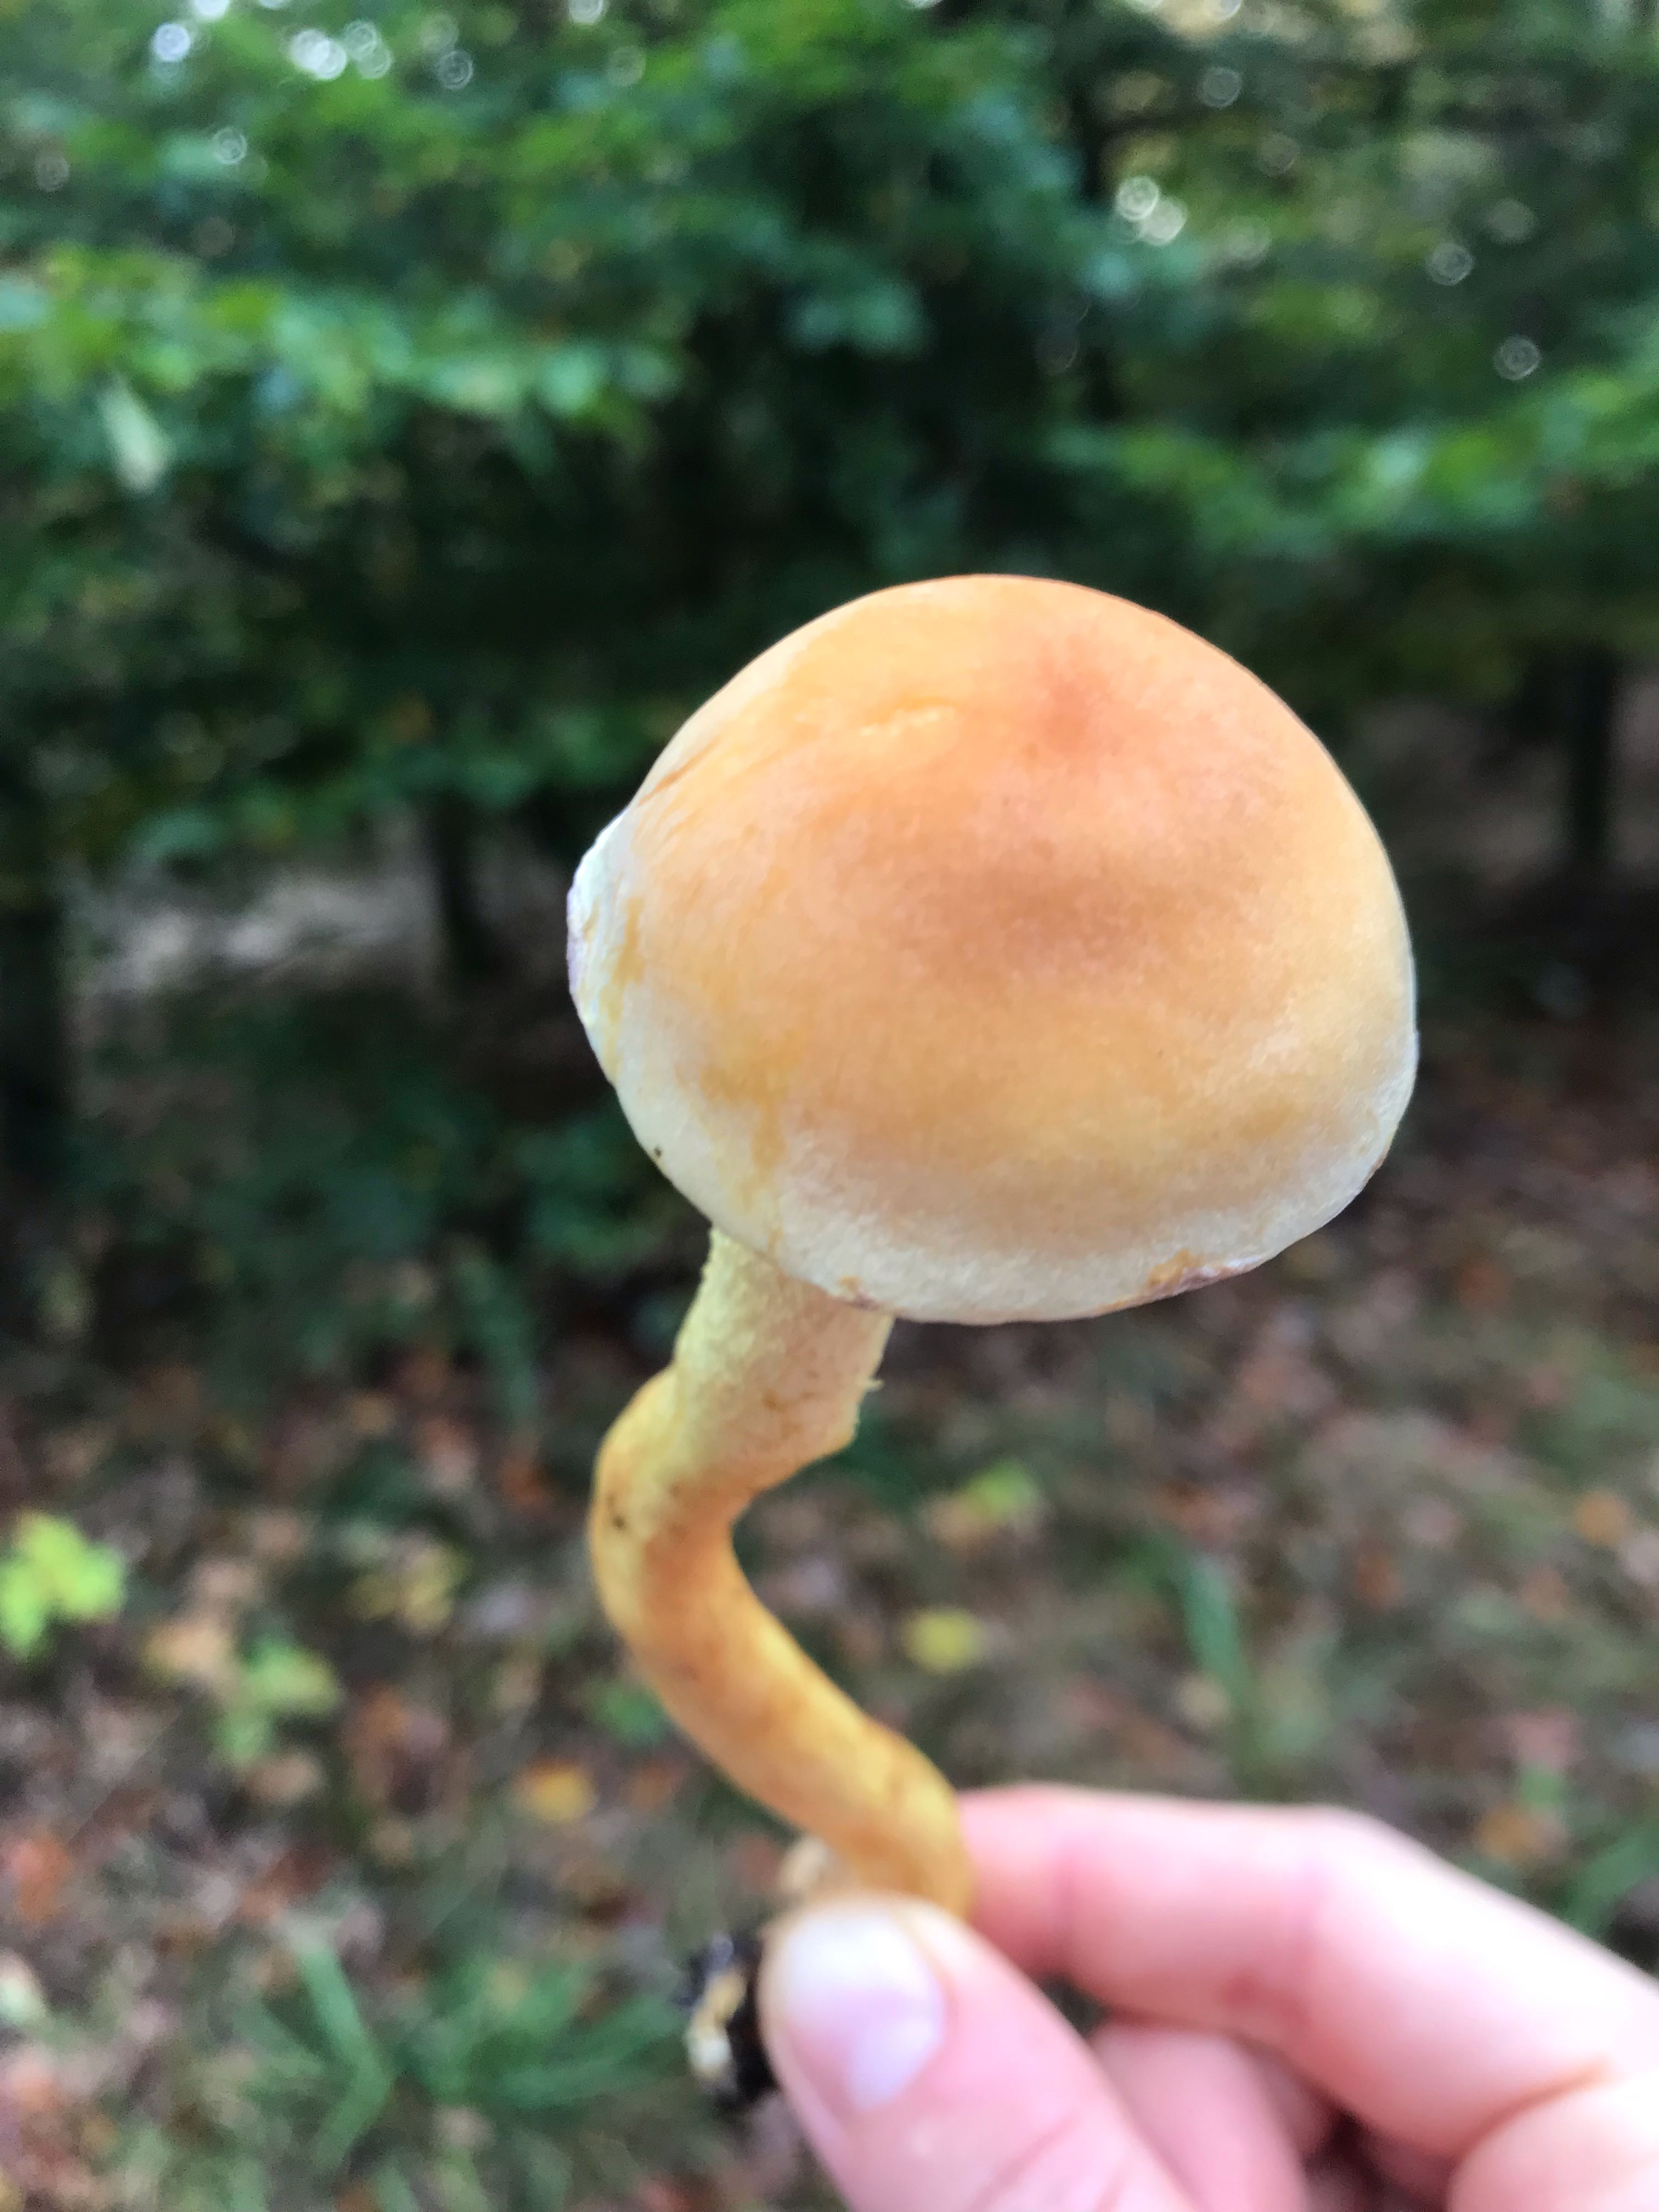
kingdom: Fungi
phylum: Basidiomycota
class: Agaricomycetes
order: Agaricales
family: Strophariaceae
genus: Hypholoma
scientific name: Hypholoma
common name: svovlhat
